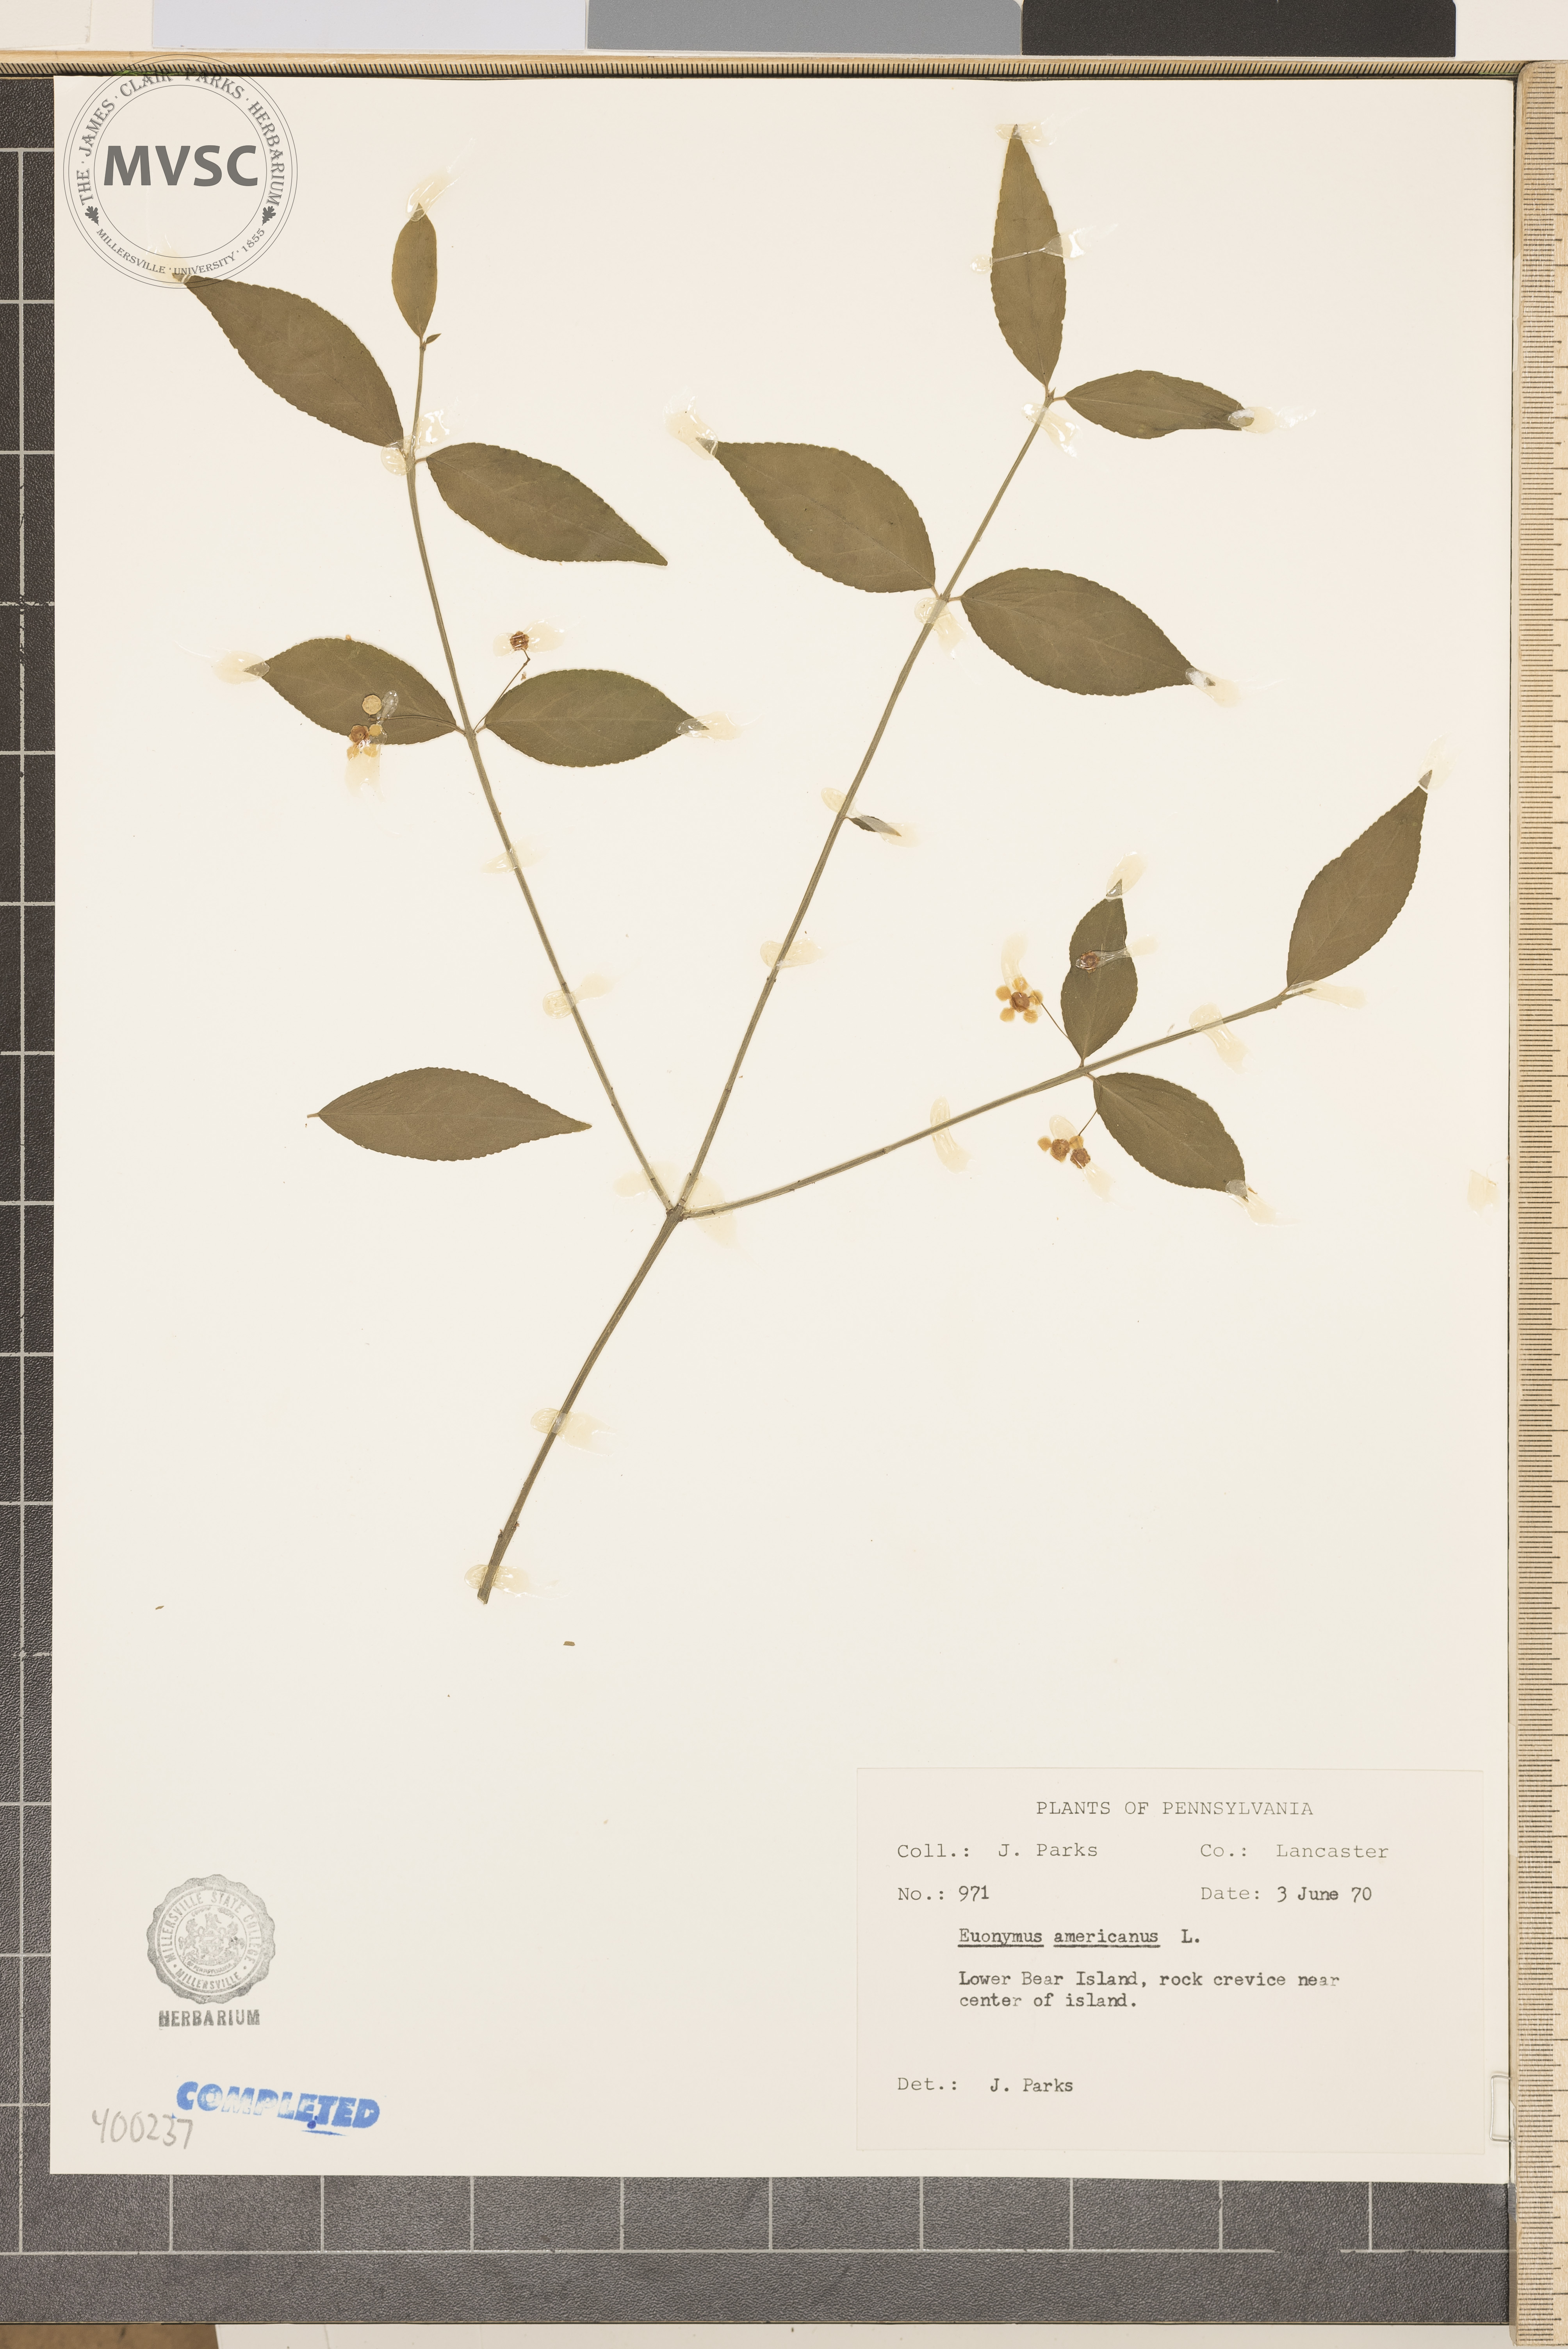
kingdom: Plantae
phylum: Tracheophyta
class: Magnoliopsida
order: Celastrales
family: Celastraceae
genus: Euonymus
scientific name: Euonymus americanus
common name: bursting-heart
